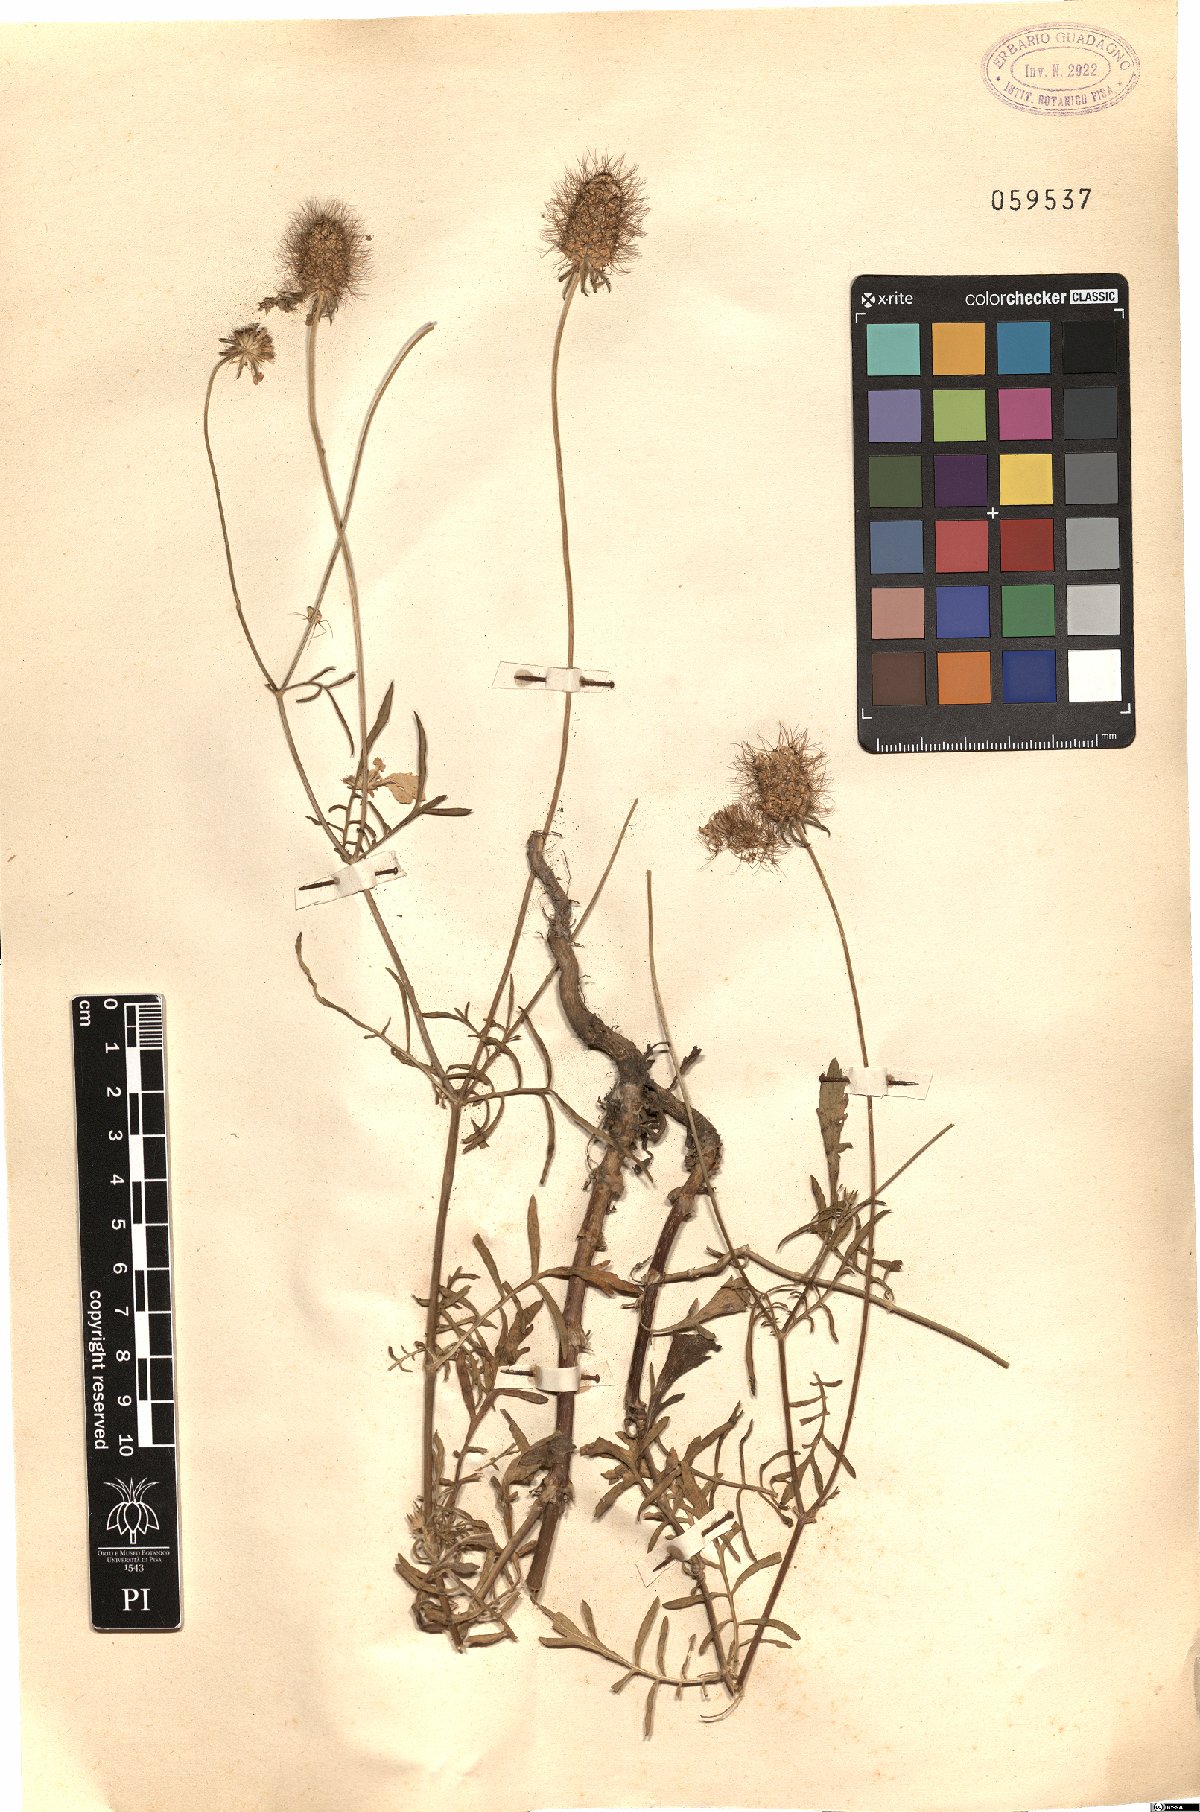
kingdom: Plantae
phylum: Tracheophyta
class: Magnoliopsida
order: Dipsacales
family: Caprifoliaceae
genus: Sixalix
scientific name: Sixalix atropurpurea
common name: Sweet scabious
